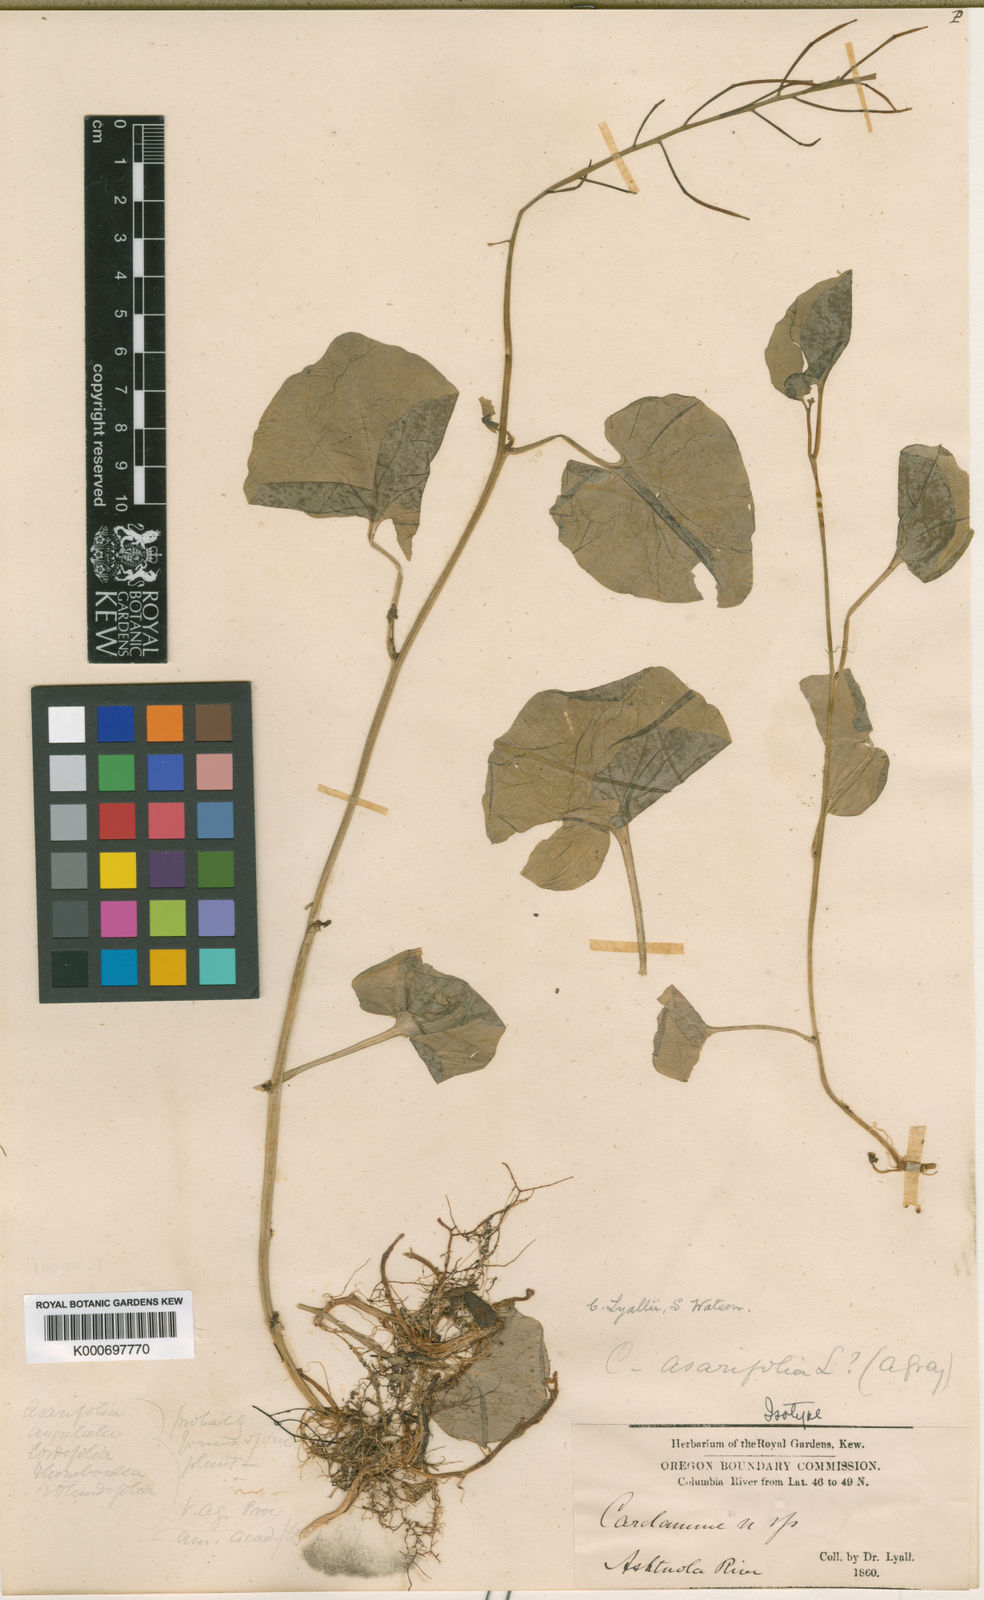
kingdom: Plantae
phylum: Tracheophyta
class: Magnoliopsida
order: Brassicales
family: Brassicaceae
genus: Cardamine
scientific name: Cardamine cordifolia
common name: Heart-leaf bittercress
